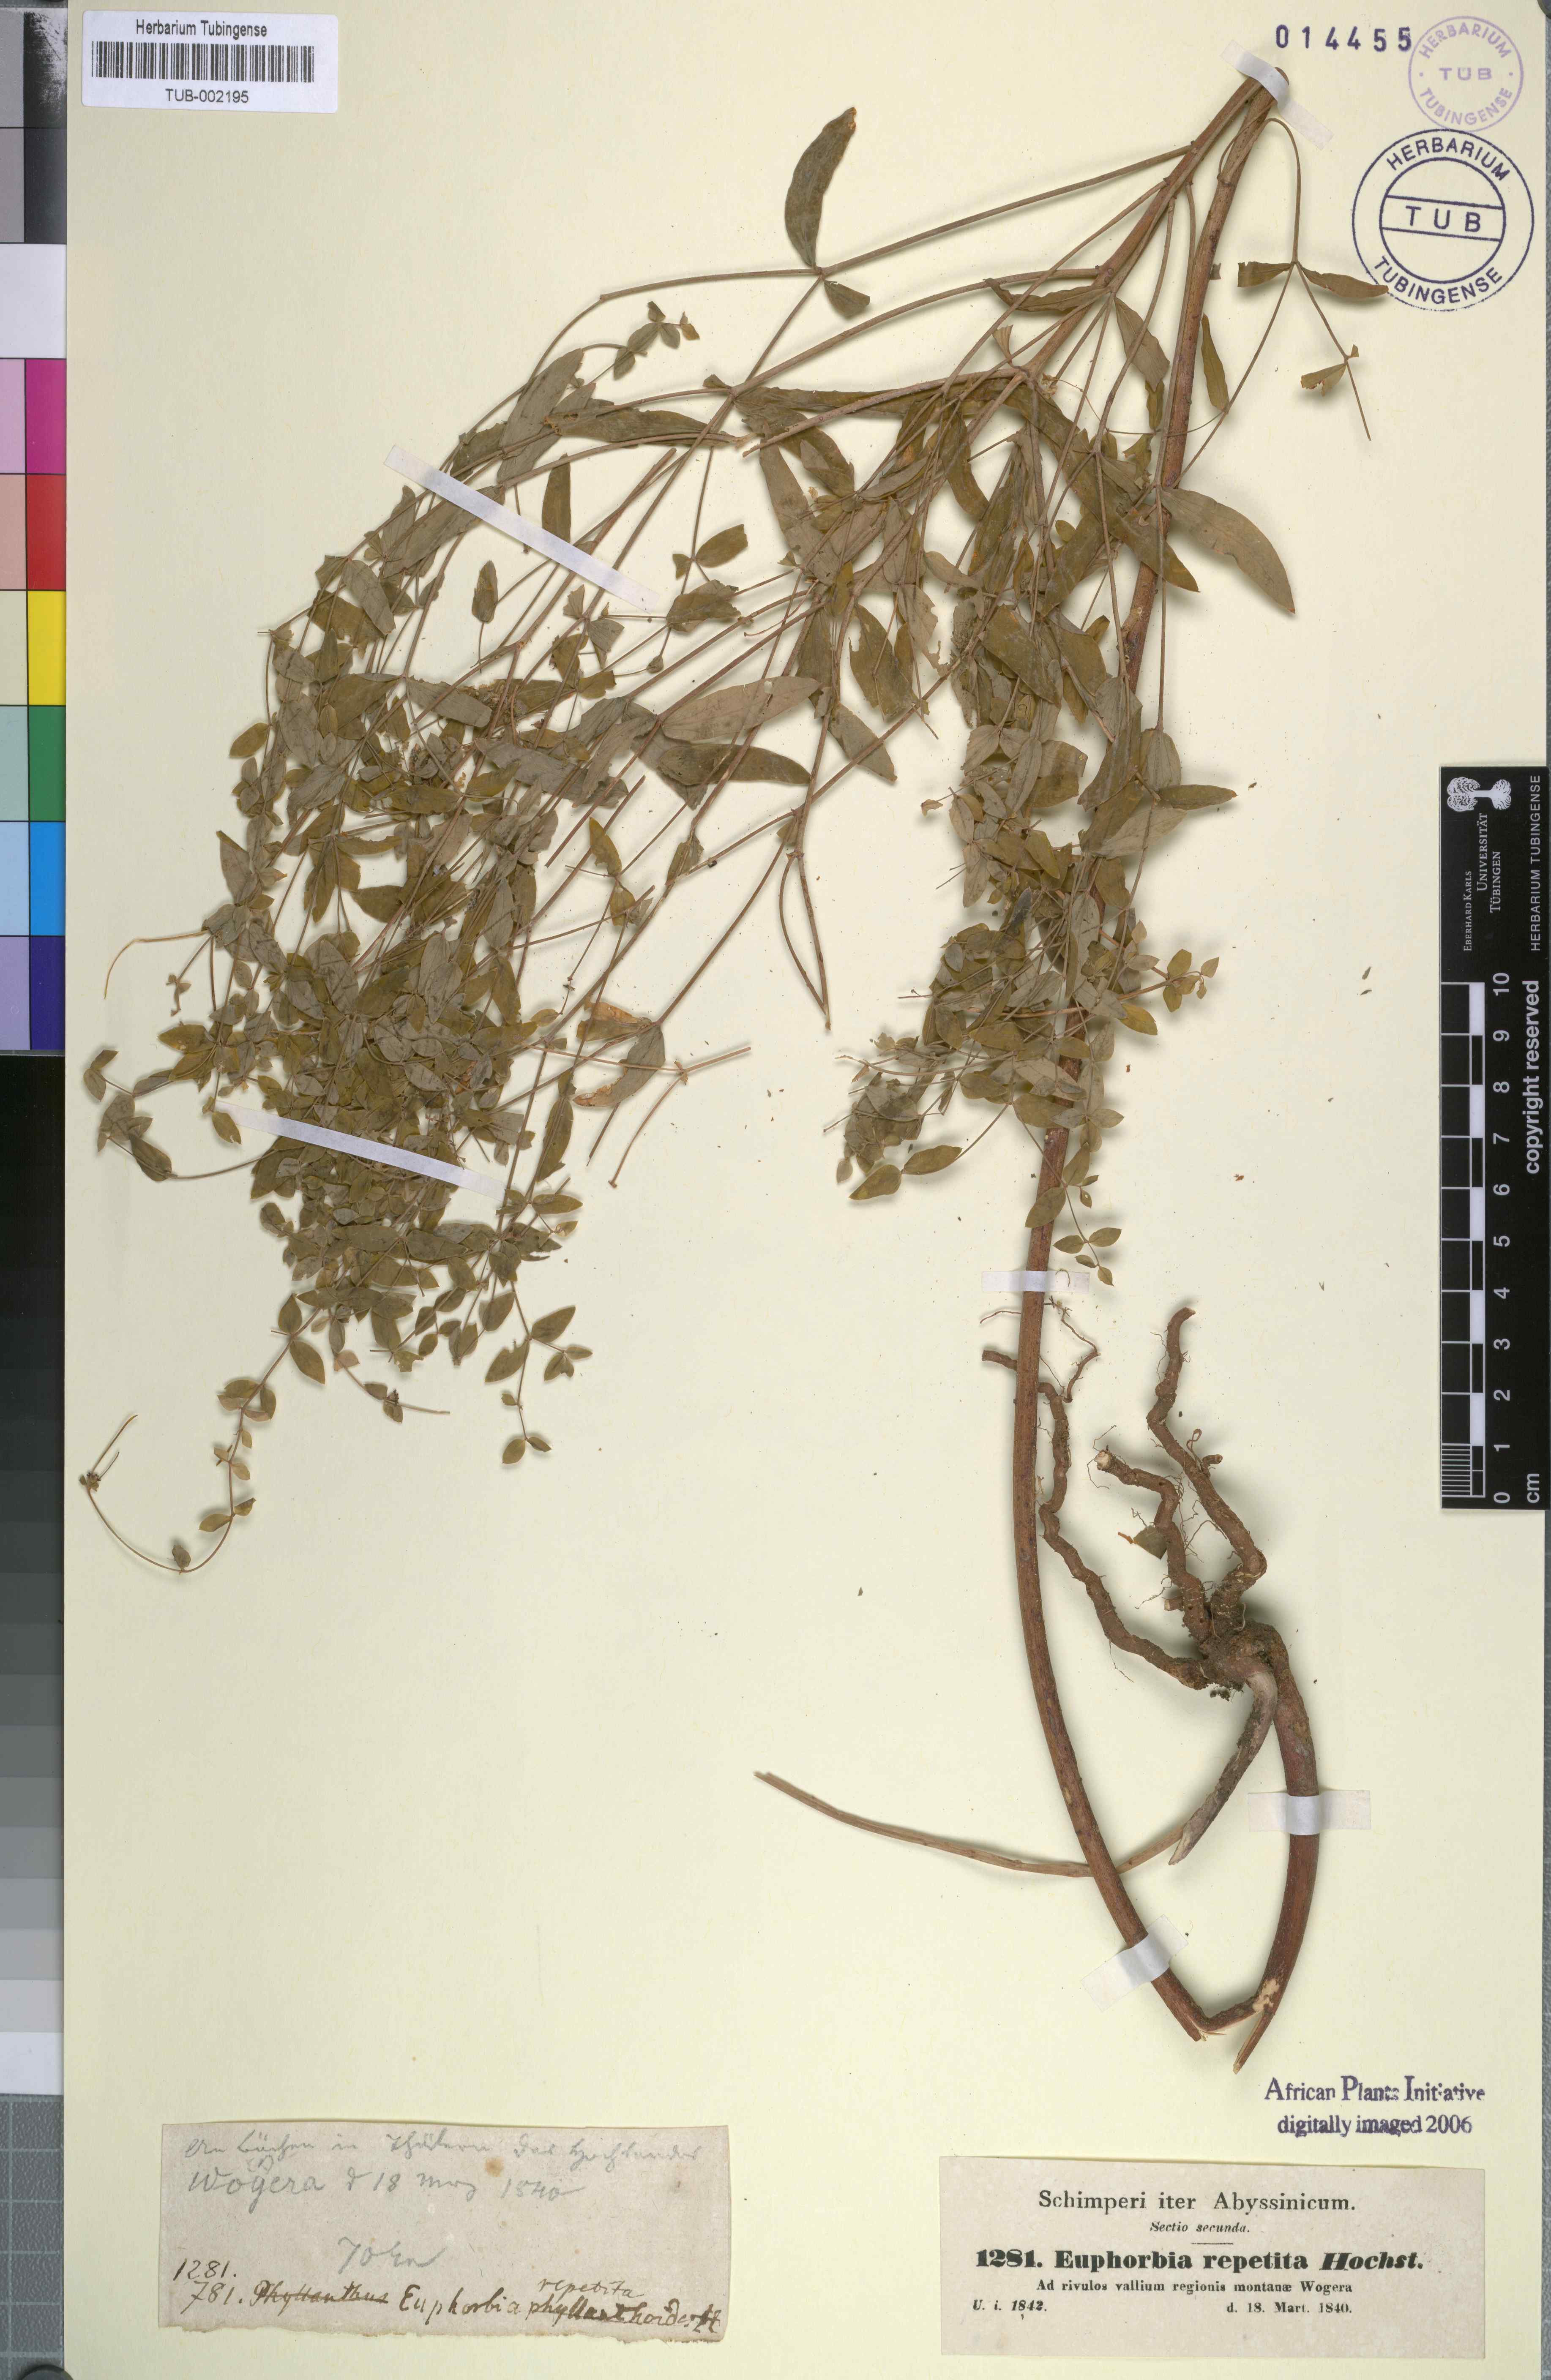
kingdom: Plantae
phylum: Tracheophyta
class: Magnoliopsida
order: Malpighiales
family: Euphorbiaceae
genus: Euphorbia
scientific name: Euphorbia repetita
